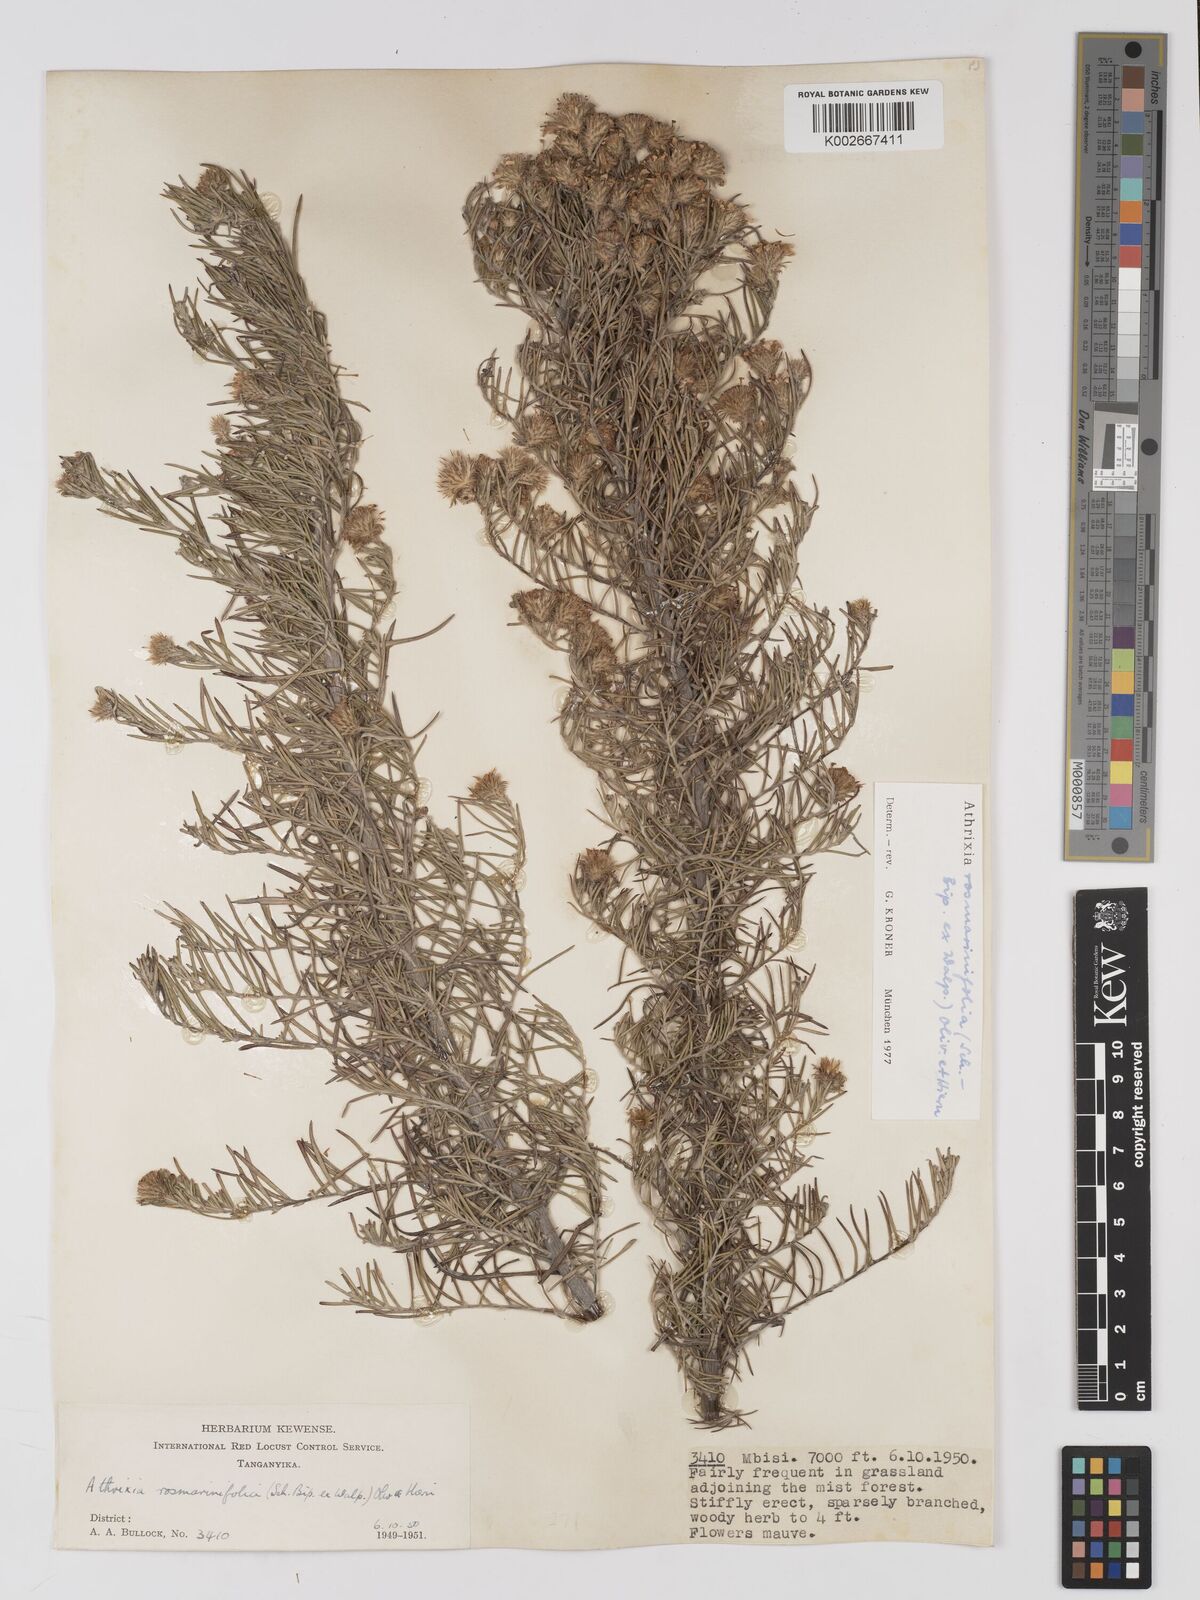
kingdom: Plantae
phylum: Tracheophyta
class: Magnoliopsida
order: Asterales
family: Asteraceae
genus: Athrixia
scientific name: Athrixia rosmarinifolia
